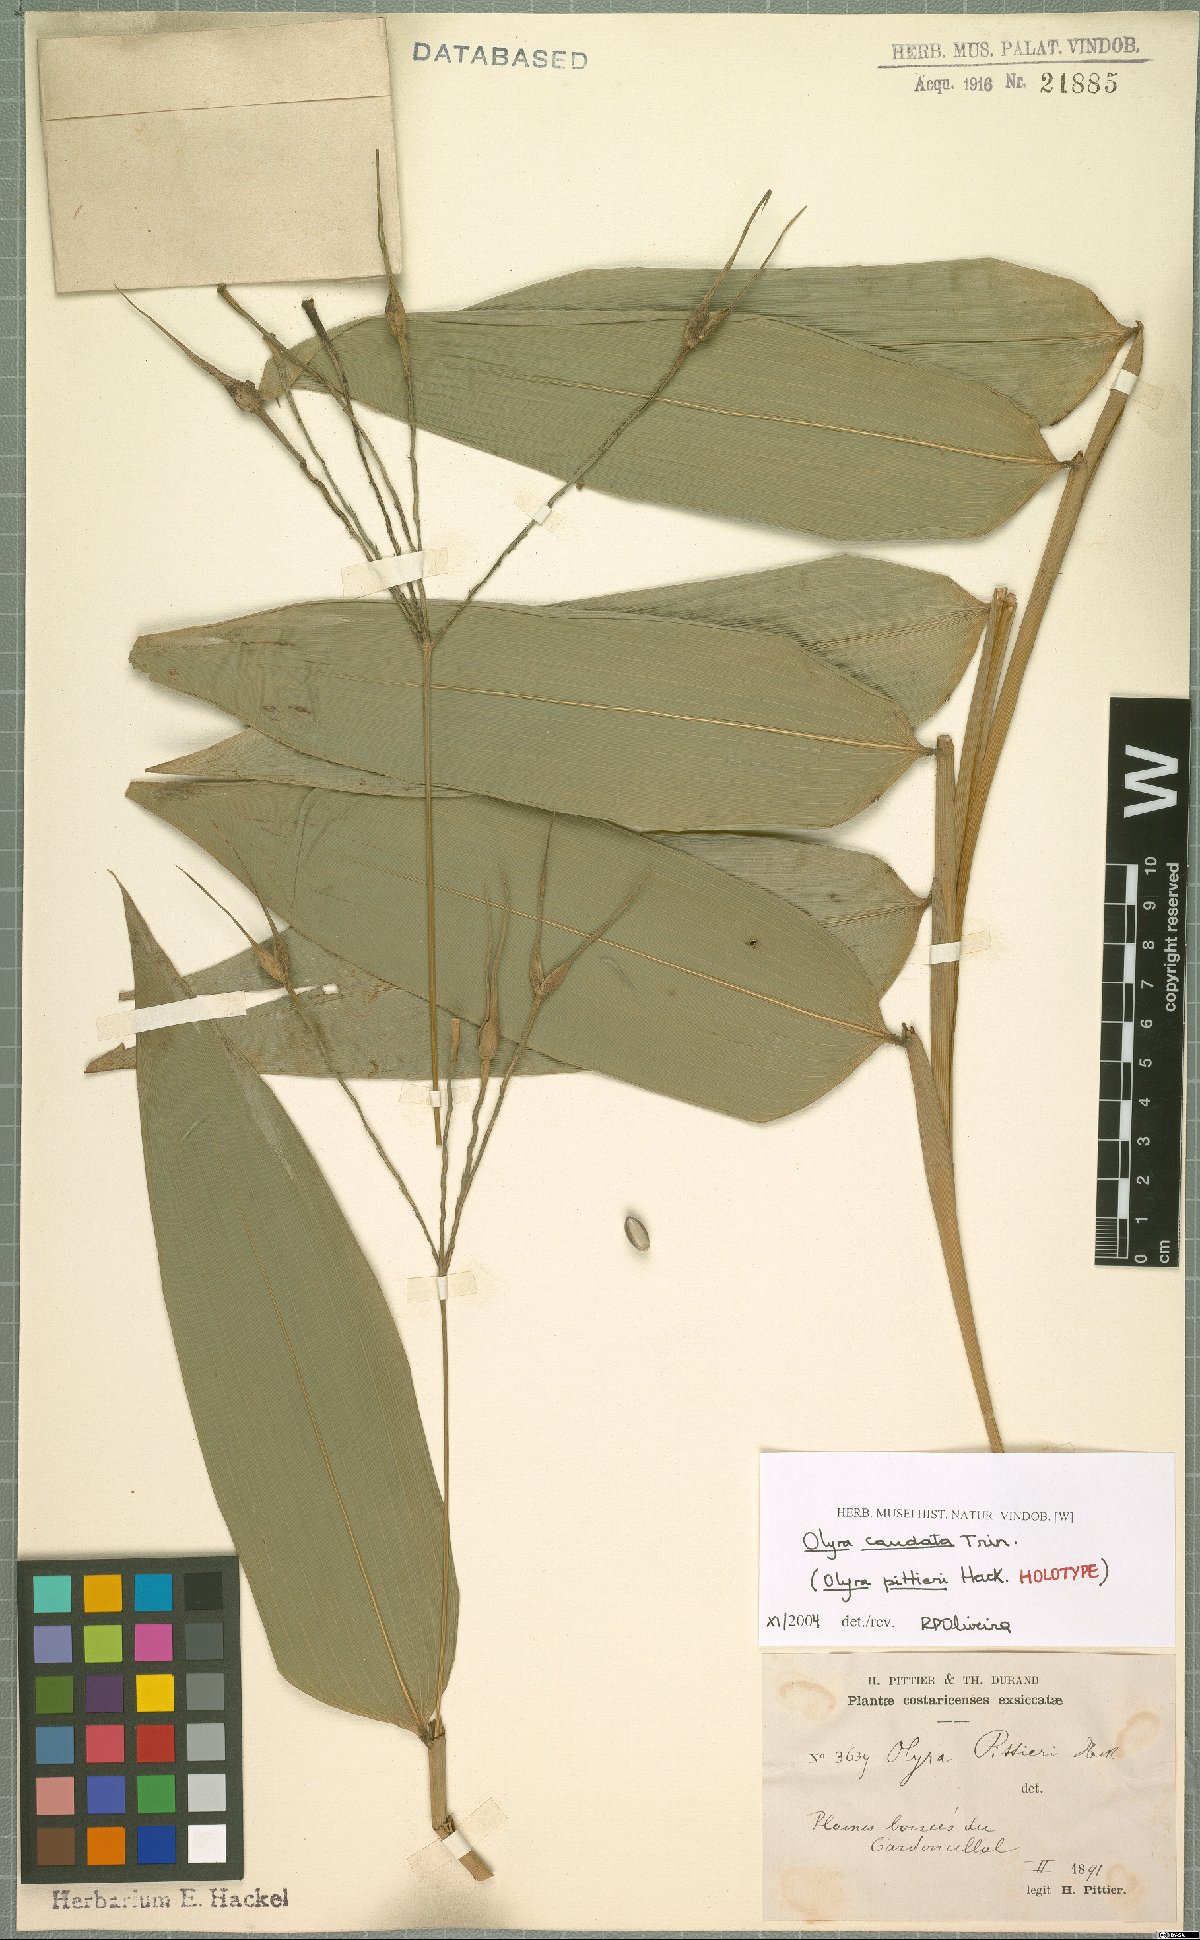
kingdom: Plantae
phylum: Tracheophyta
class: Liliopsida
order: Poales
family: Poaceae
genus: Olyra
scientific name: Olyra caudata
